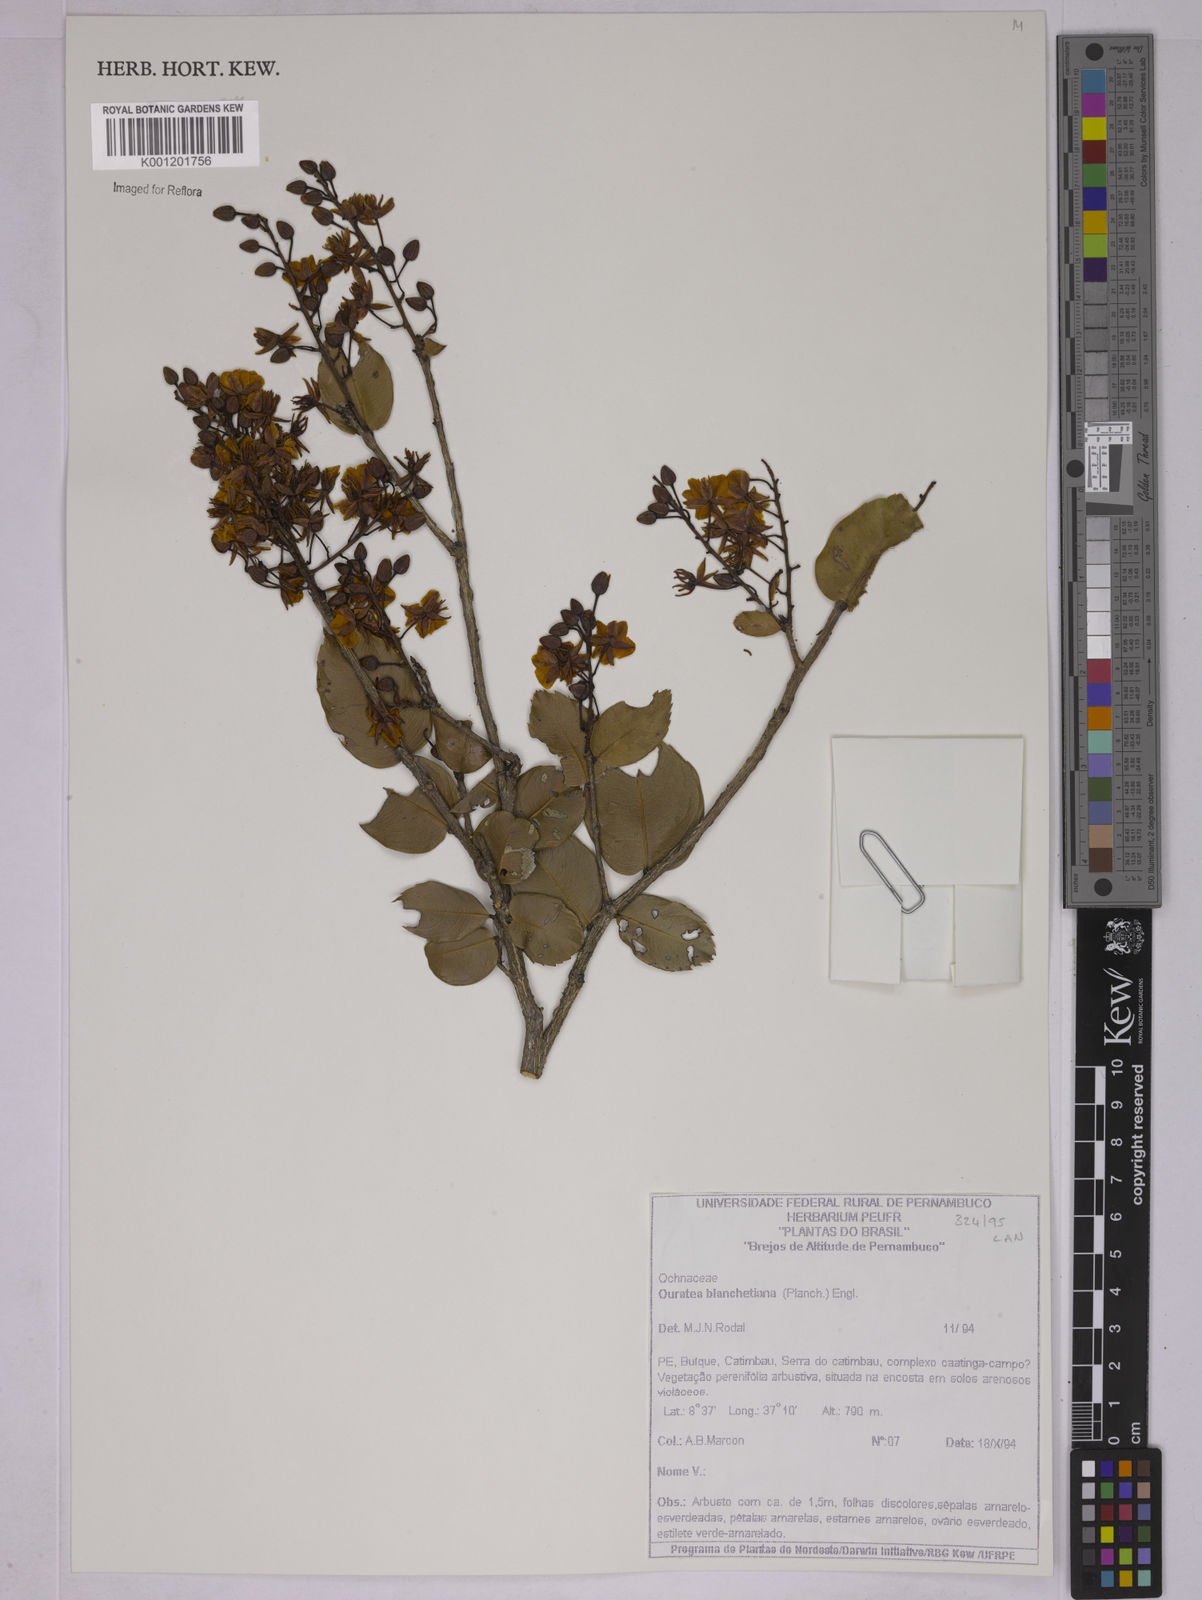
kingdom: Plantae
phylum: Tracheophyta
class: Magnoliopsida
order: Malpighiales
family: Ochnaceae
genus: Ouratea
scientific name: Ouratea blanchetiana
